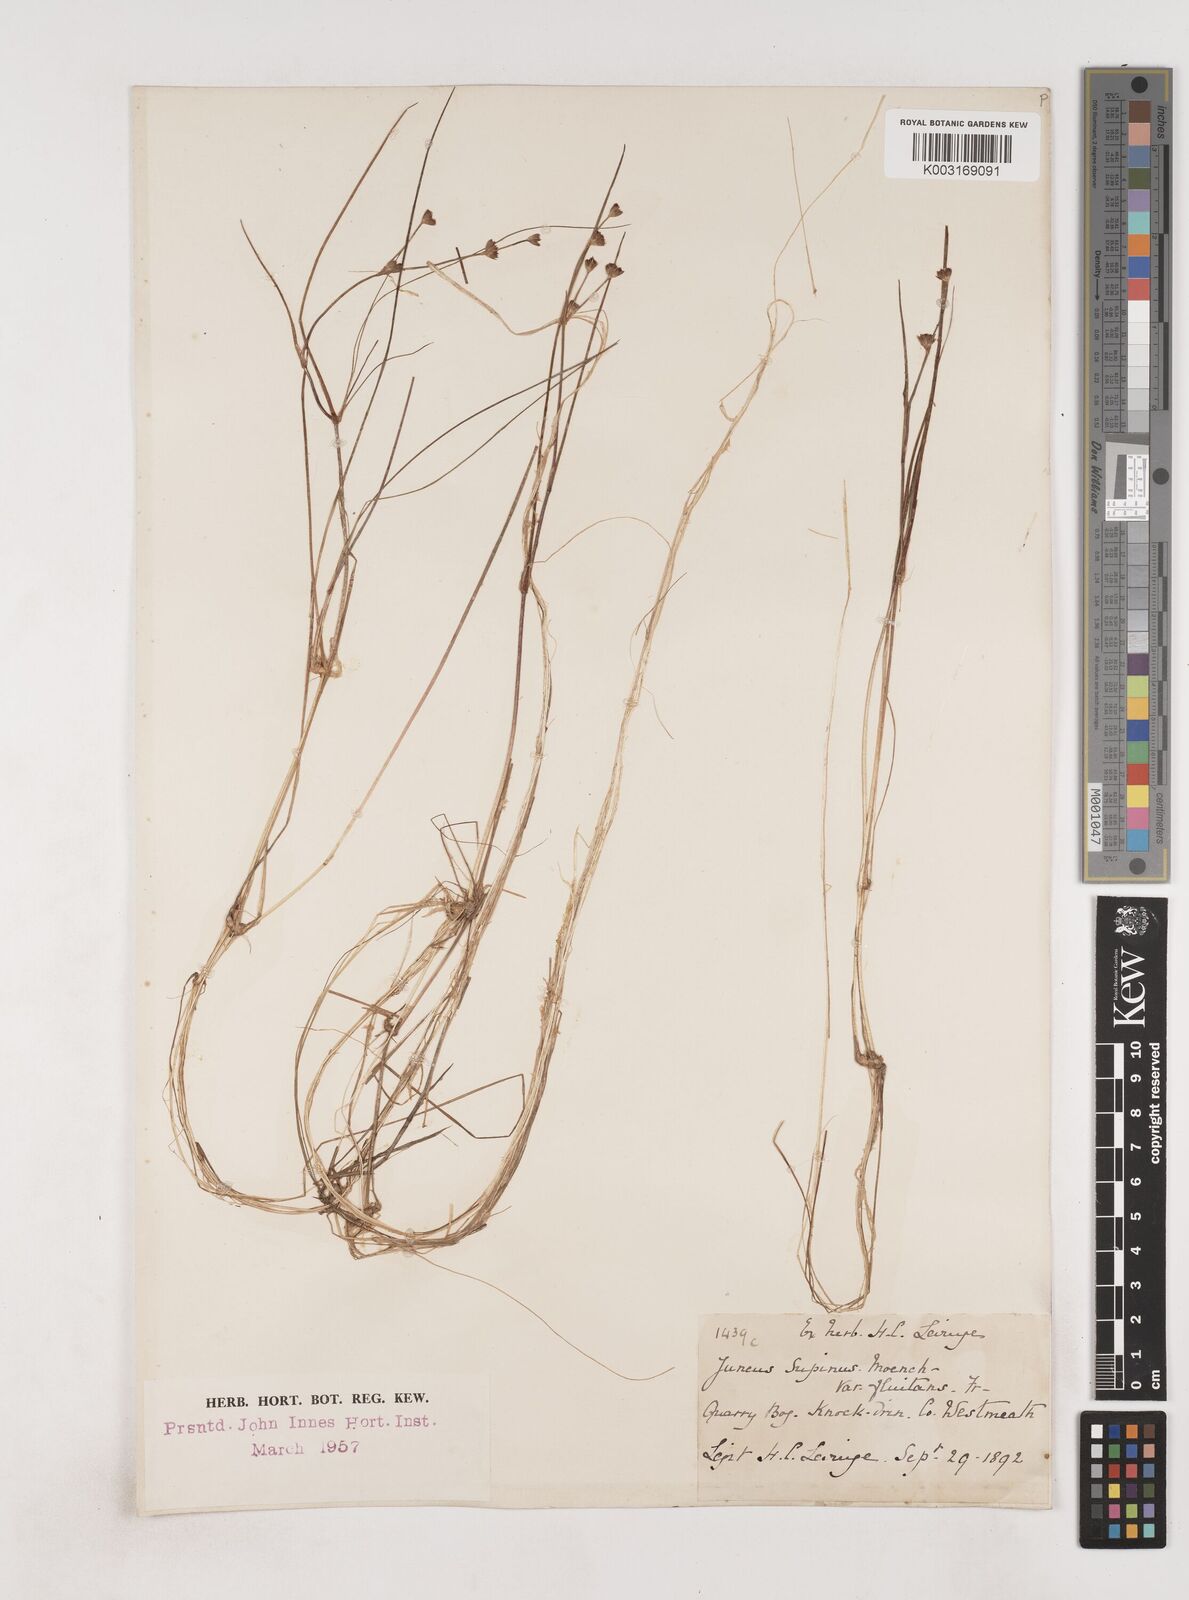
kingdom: Plantae
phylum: Tracheophyta
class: Liliopsida
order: Poales
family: Juncaceae
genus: Juncus
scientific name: Juncus bulbosus
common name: Bulbous rush
